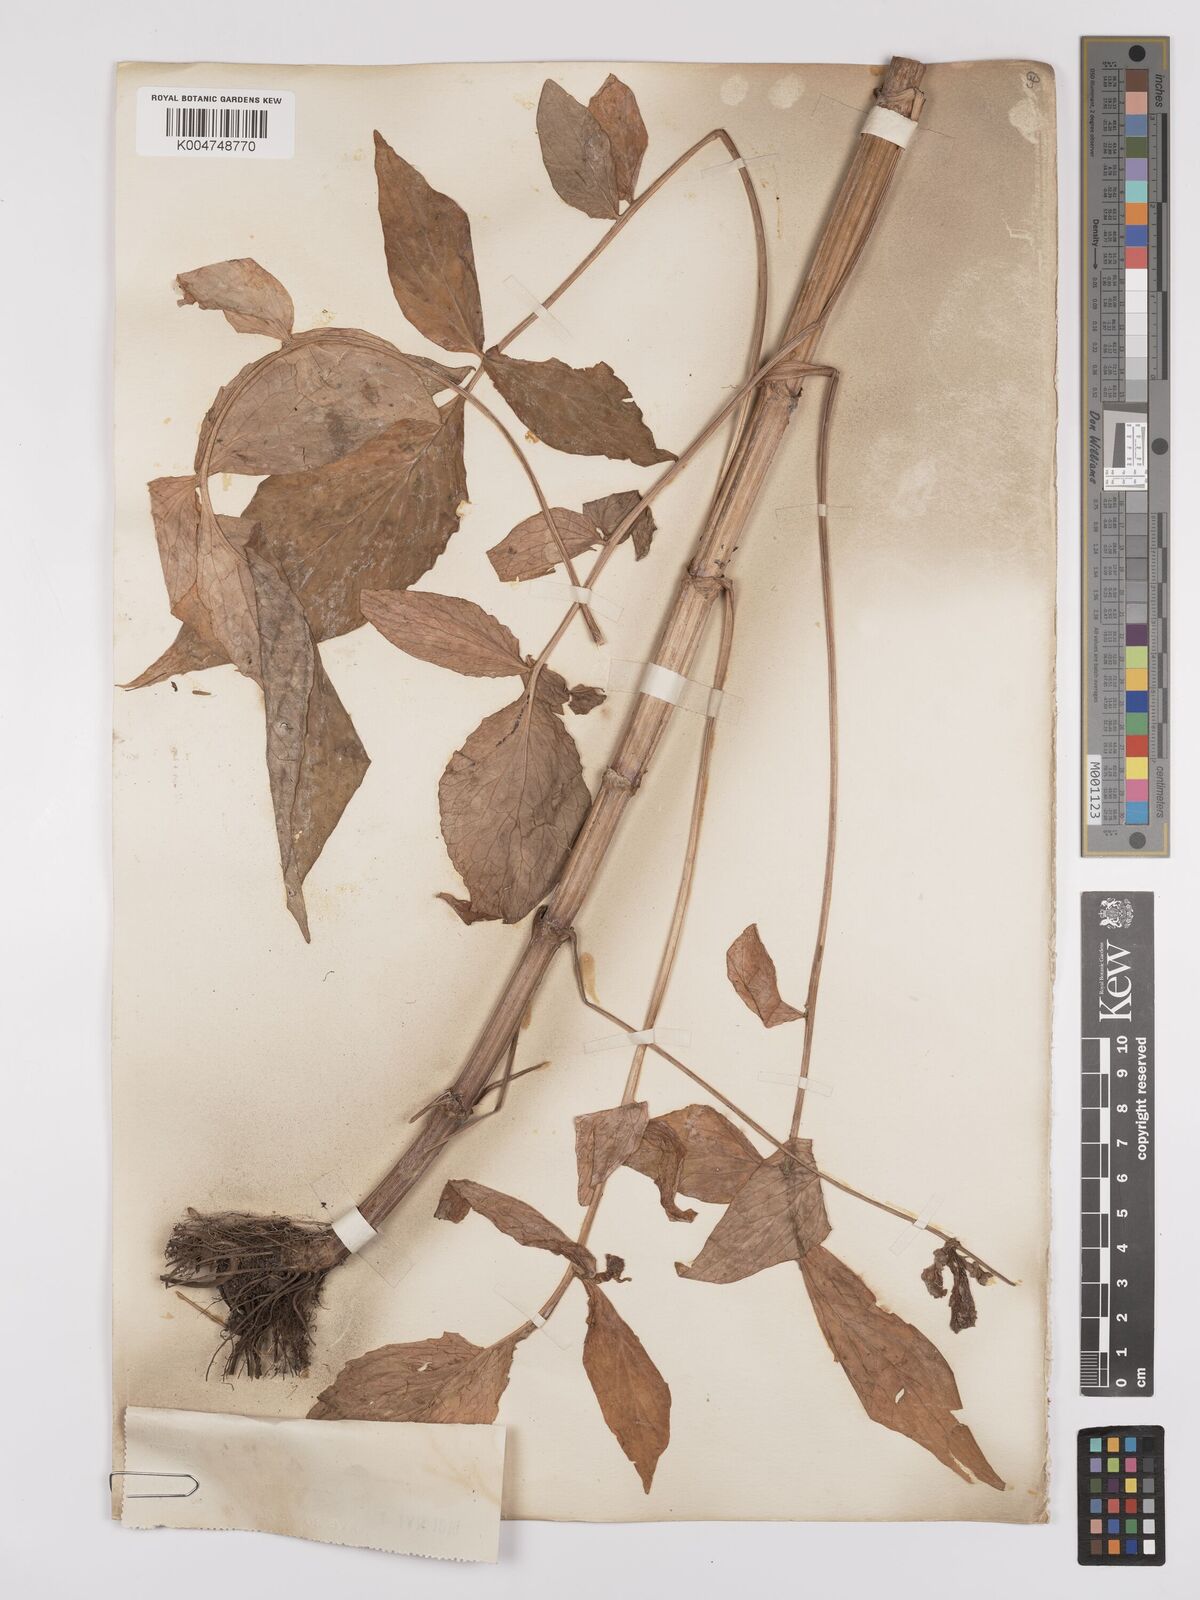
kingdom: Plantae
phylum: Tracheophyta
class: Magnoliopsida
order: Dipsacales
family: Caprifoliaceae
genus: Valeriana
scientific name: Valeriana hardwickei
